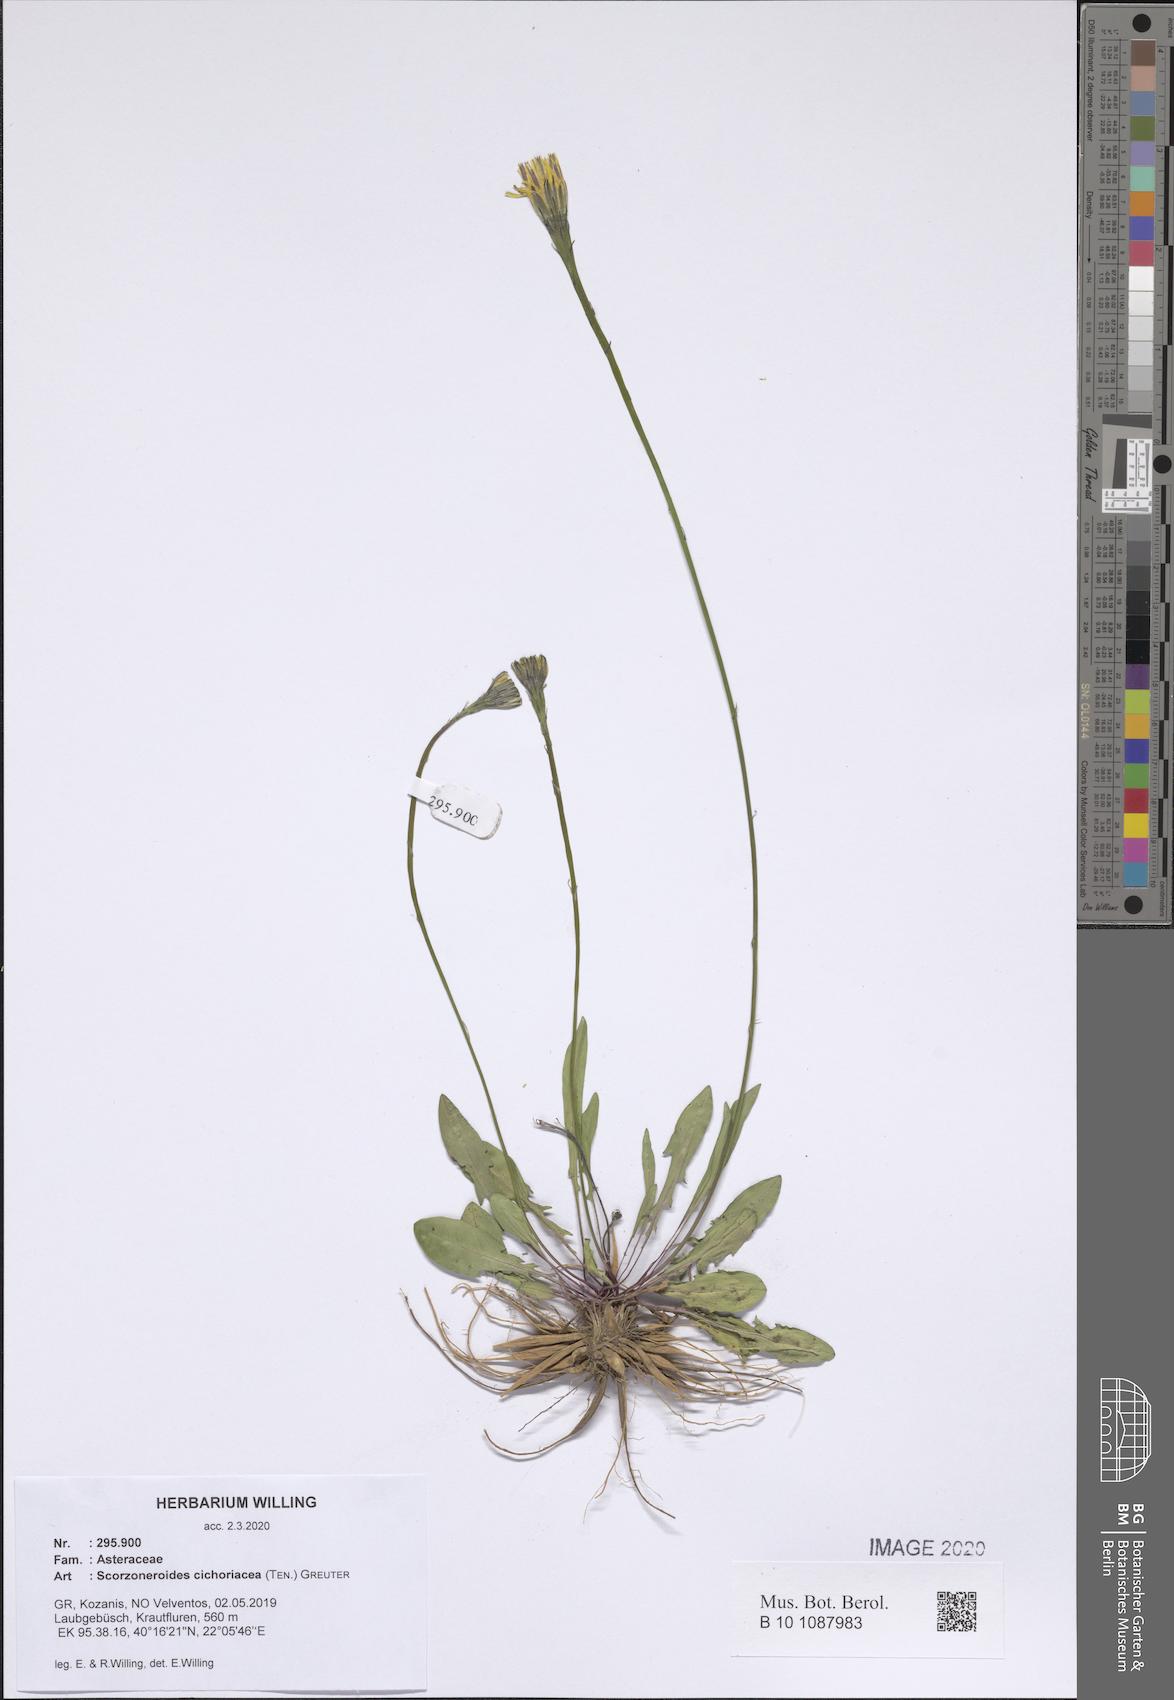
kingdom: Plantae
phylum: Tracheophyta
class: Magnoliopsida
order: Asterales
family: Asteraceae
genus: Scorzoneroides
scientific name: Scorzoneroides cichoriacea
